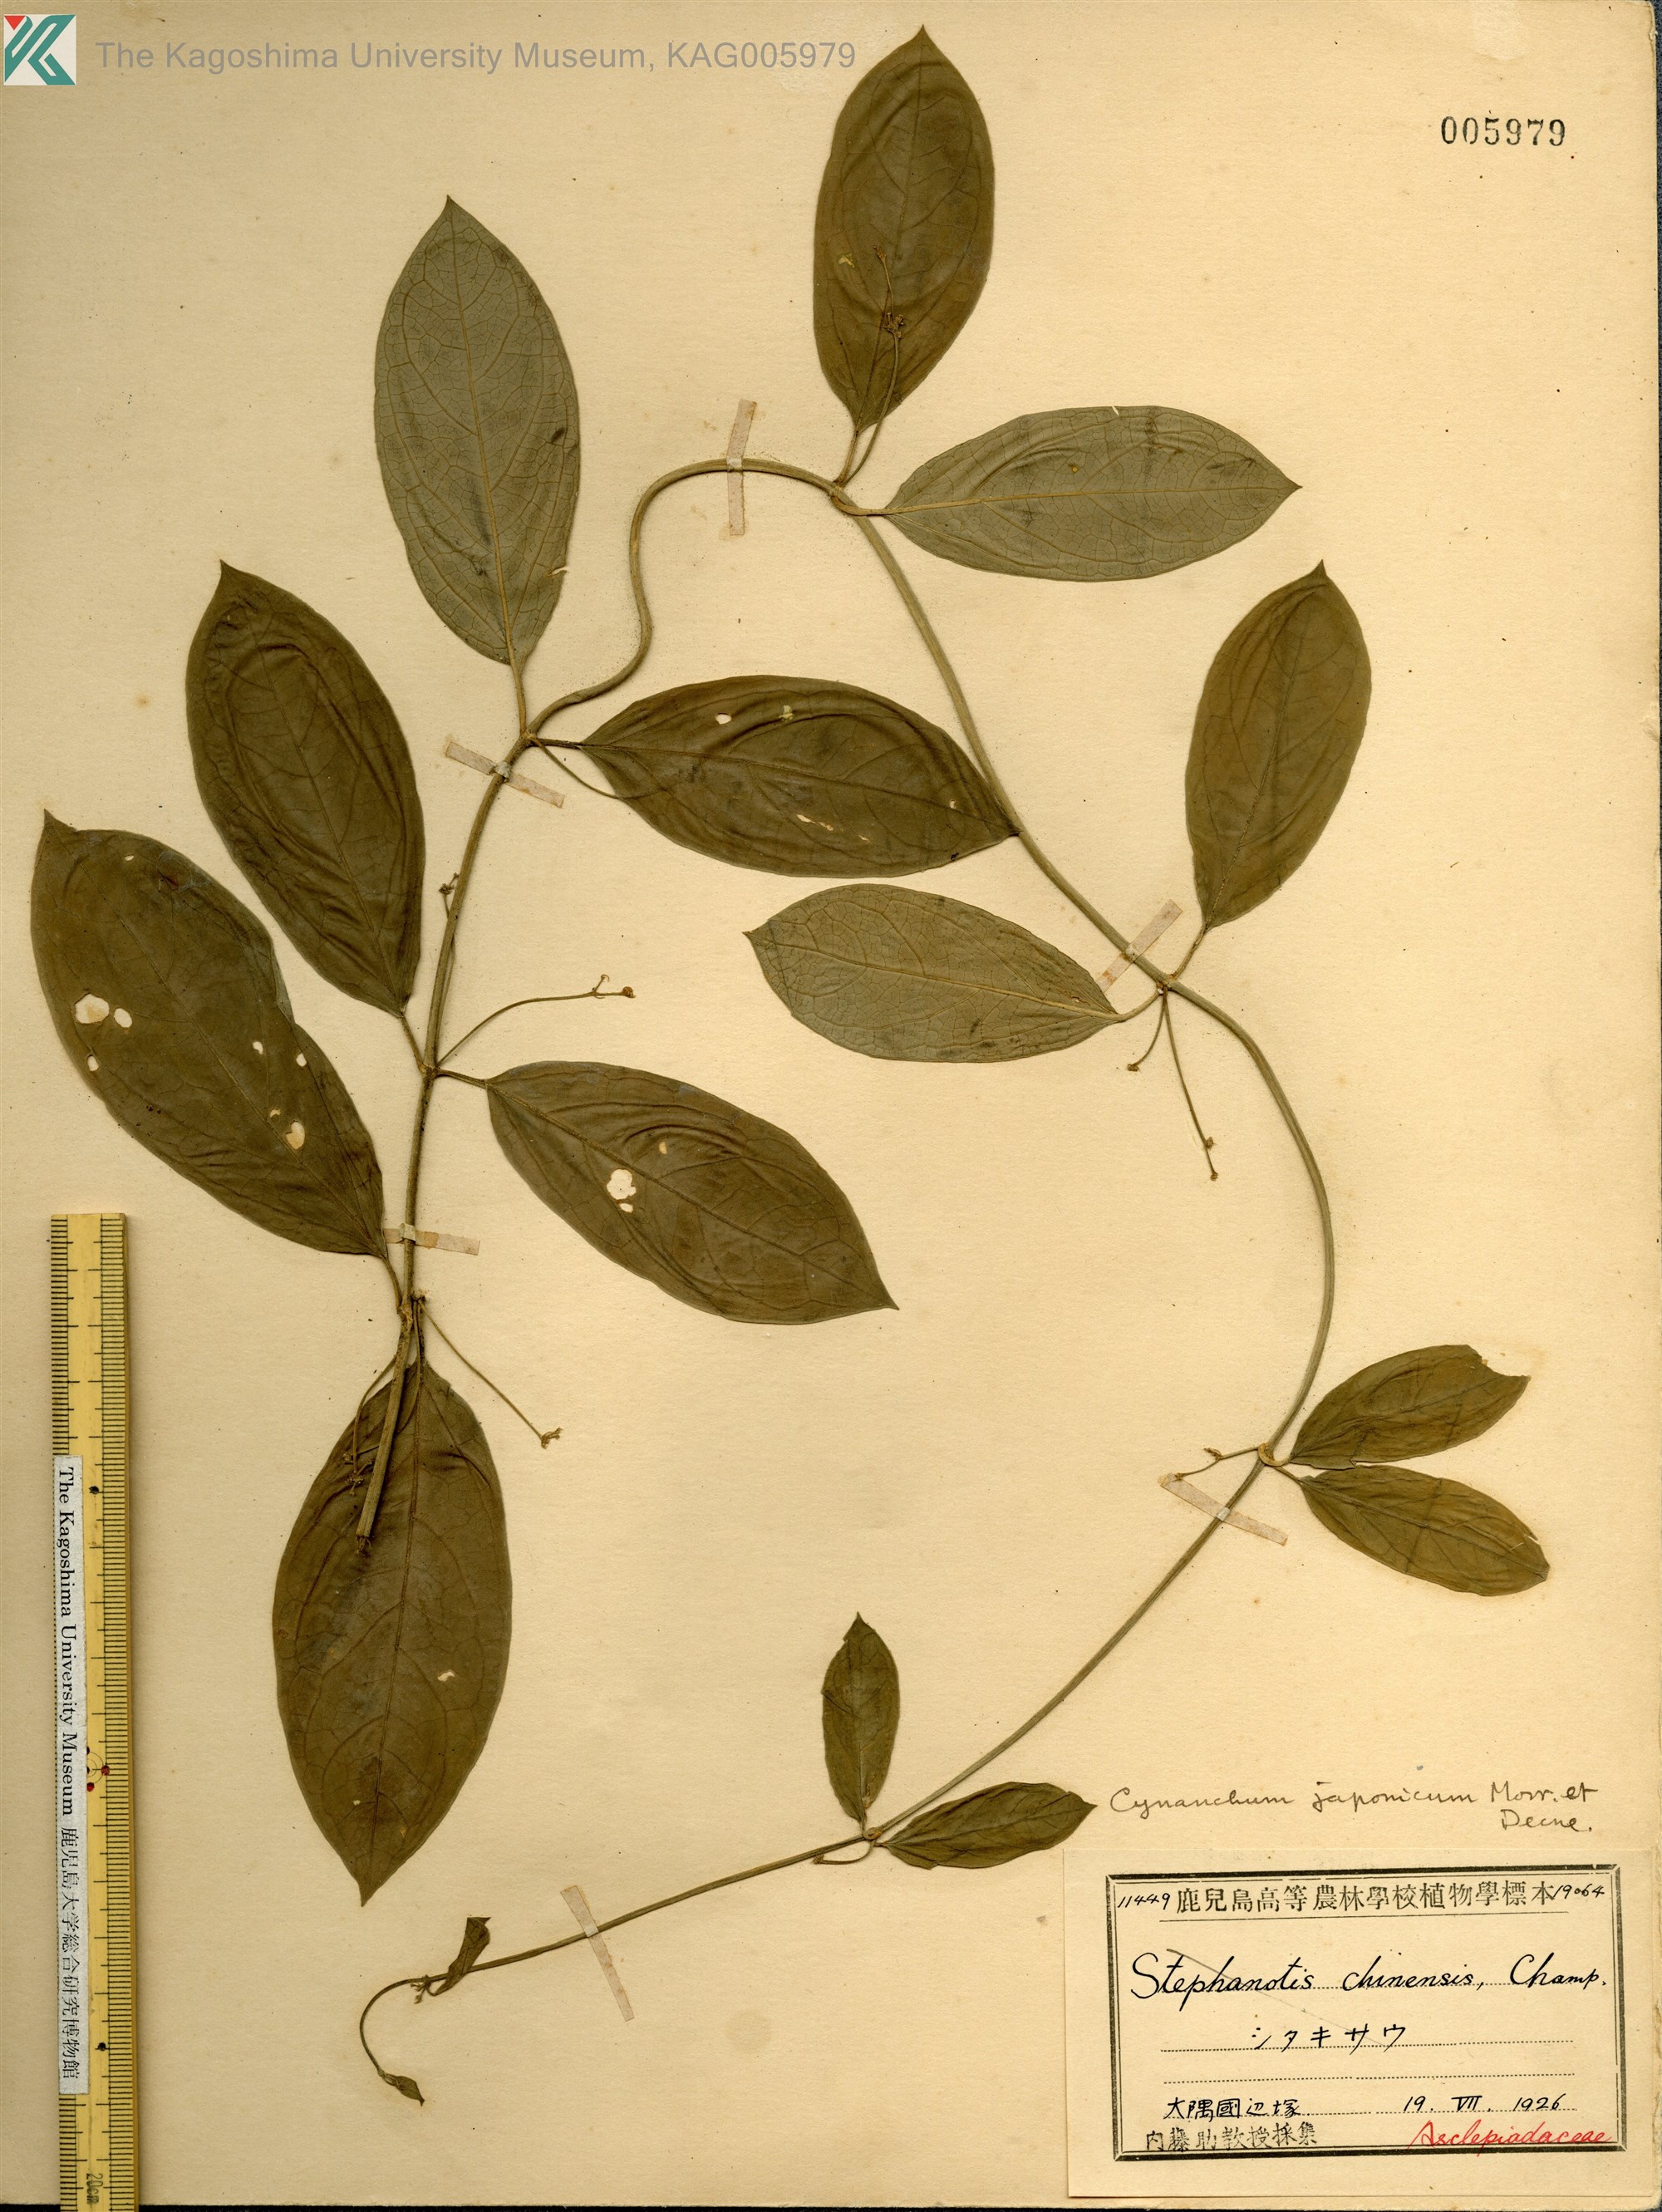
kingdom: Plantae
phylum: Tracheophyta
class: Magnoliopsida
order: Gentianales
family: Apocynaceae
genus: Vincetoxicum
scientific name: Vincetoxicum japonicum
